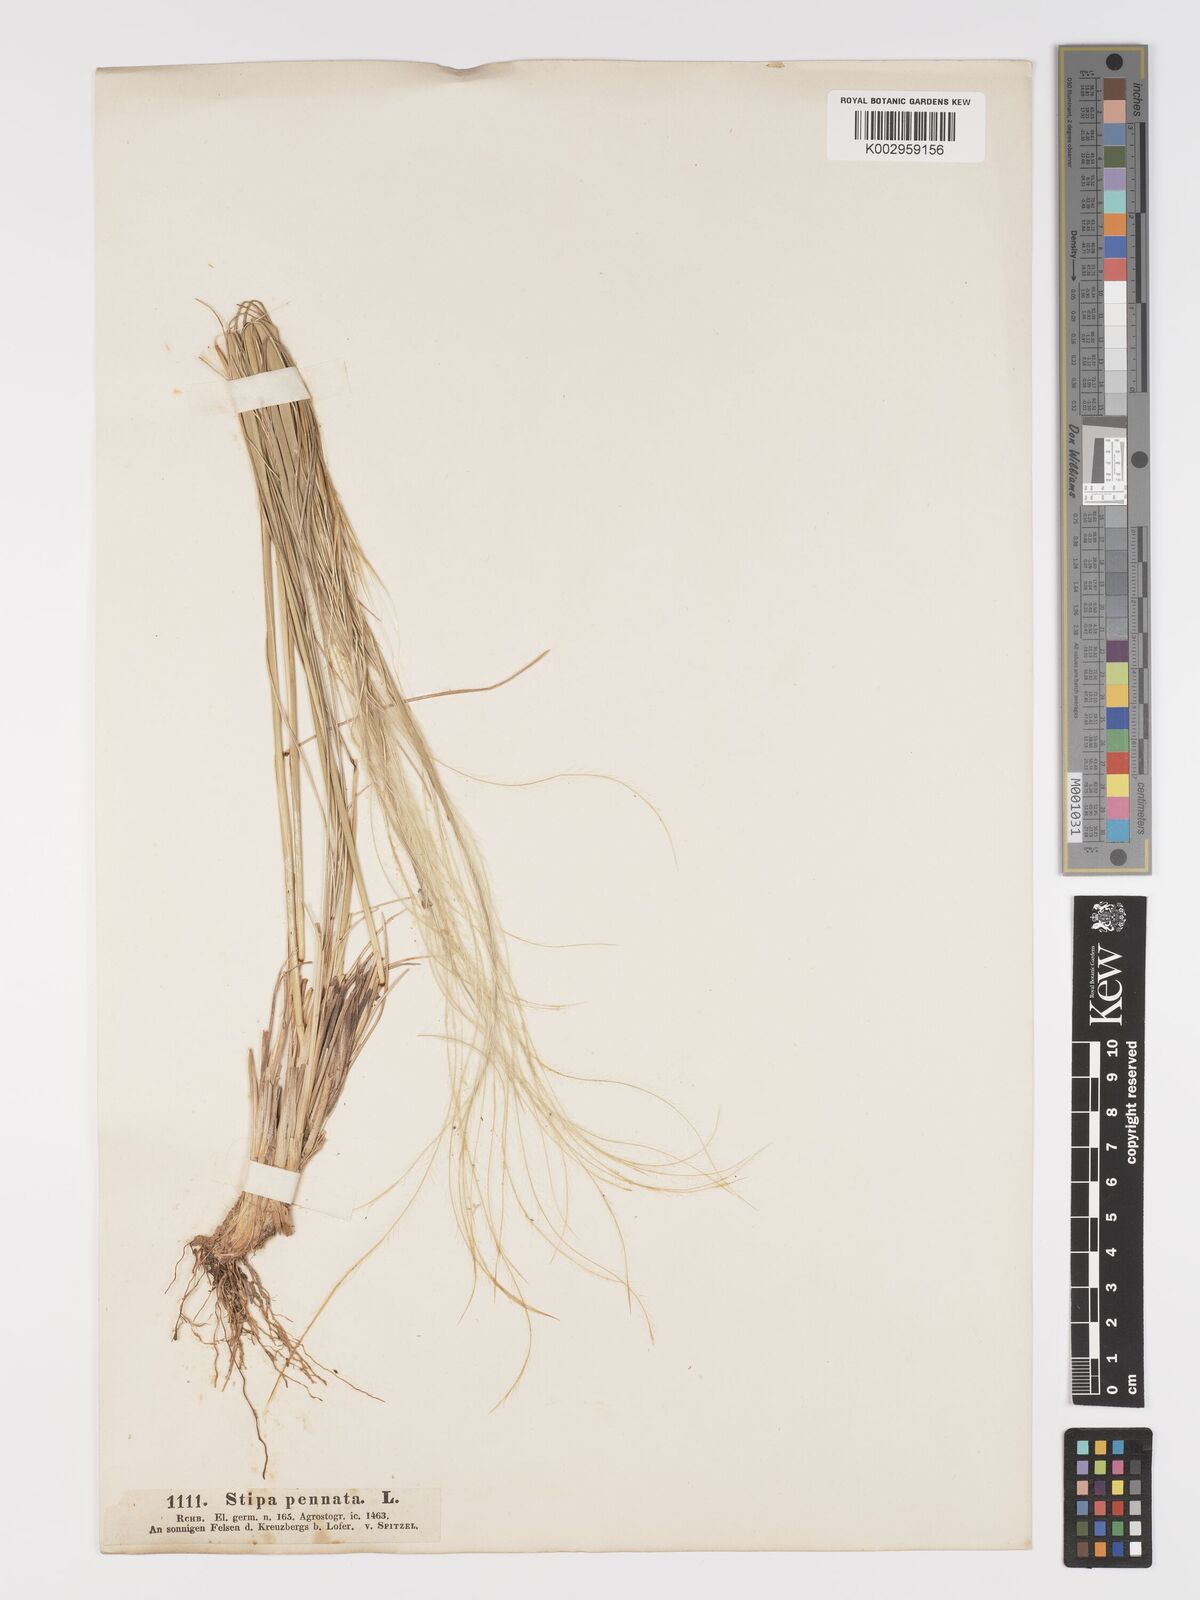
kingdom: Plantae
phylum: Tracheophyta
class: Liliopsida
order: Poales
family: Poaceae
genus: Stipa
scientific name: Stipa pennata
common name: European feather grass
